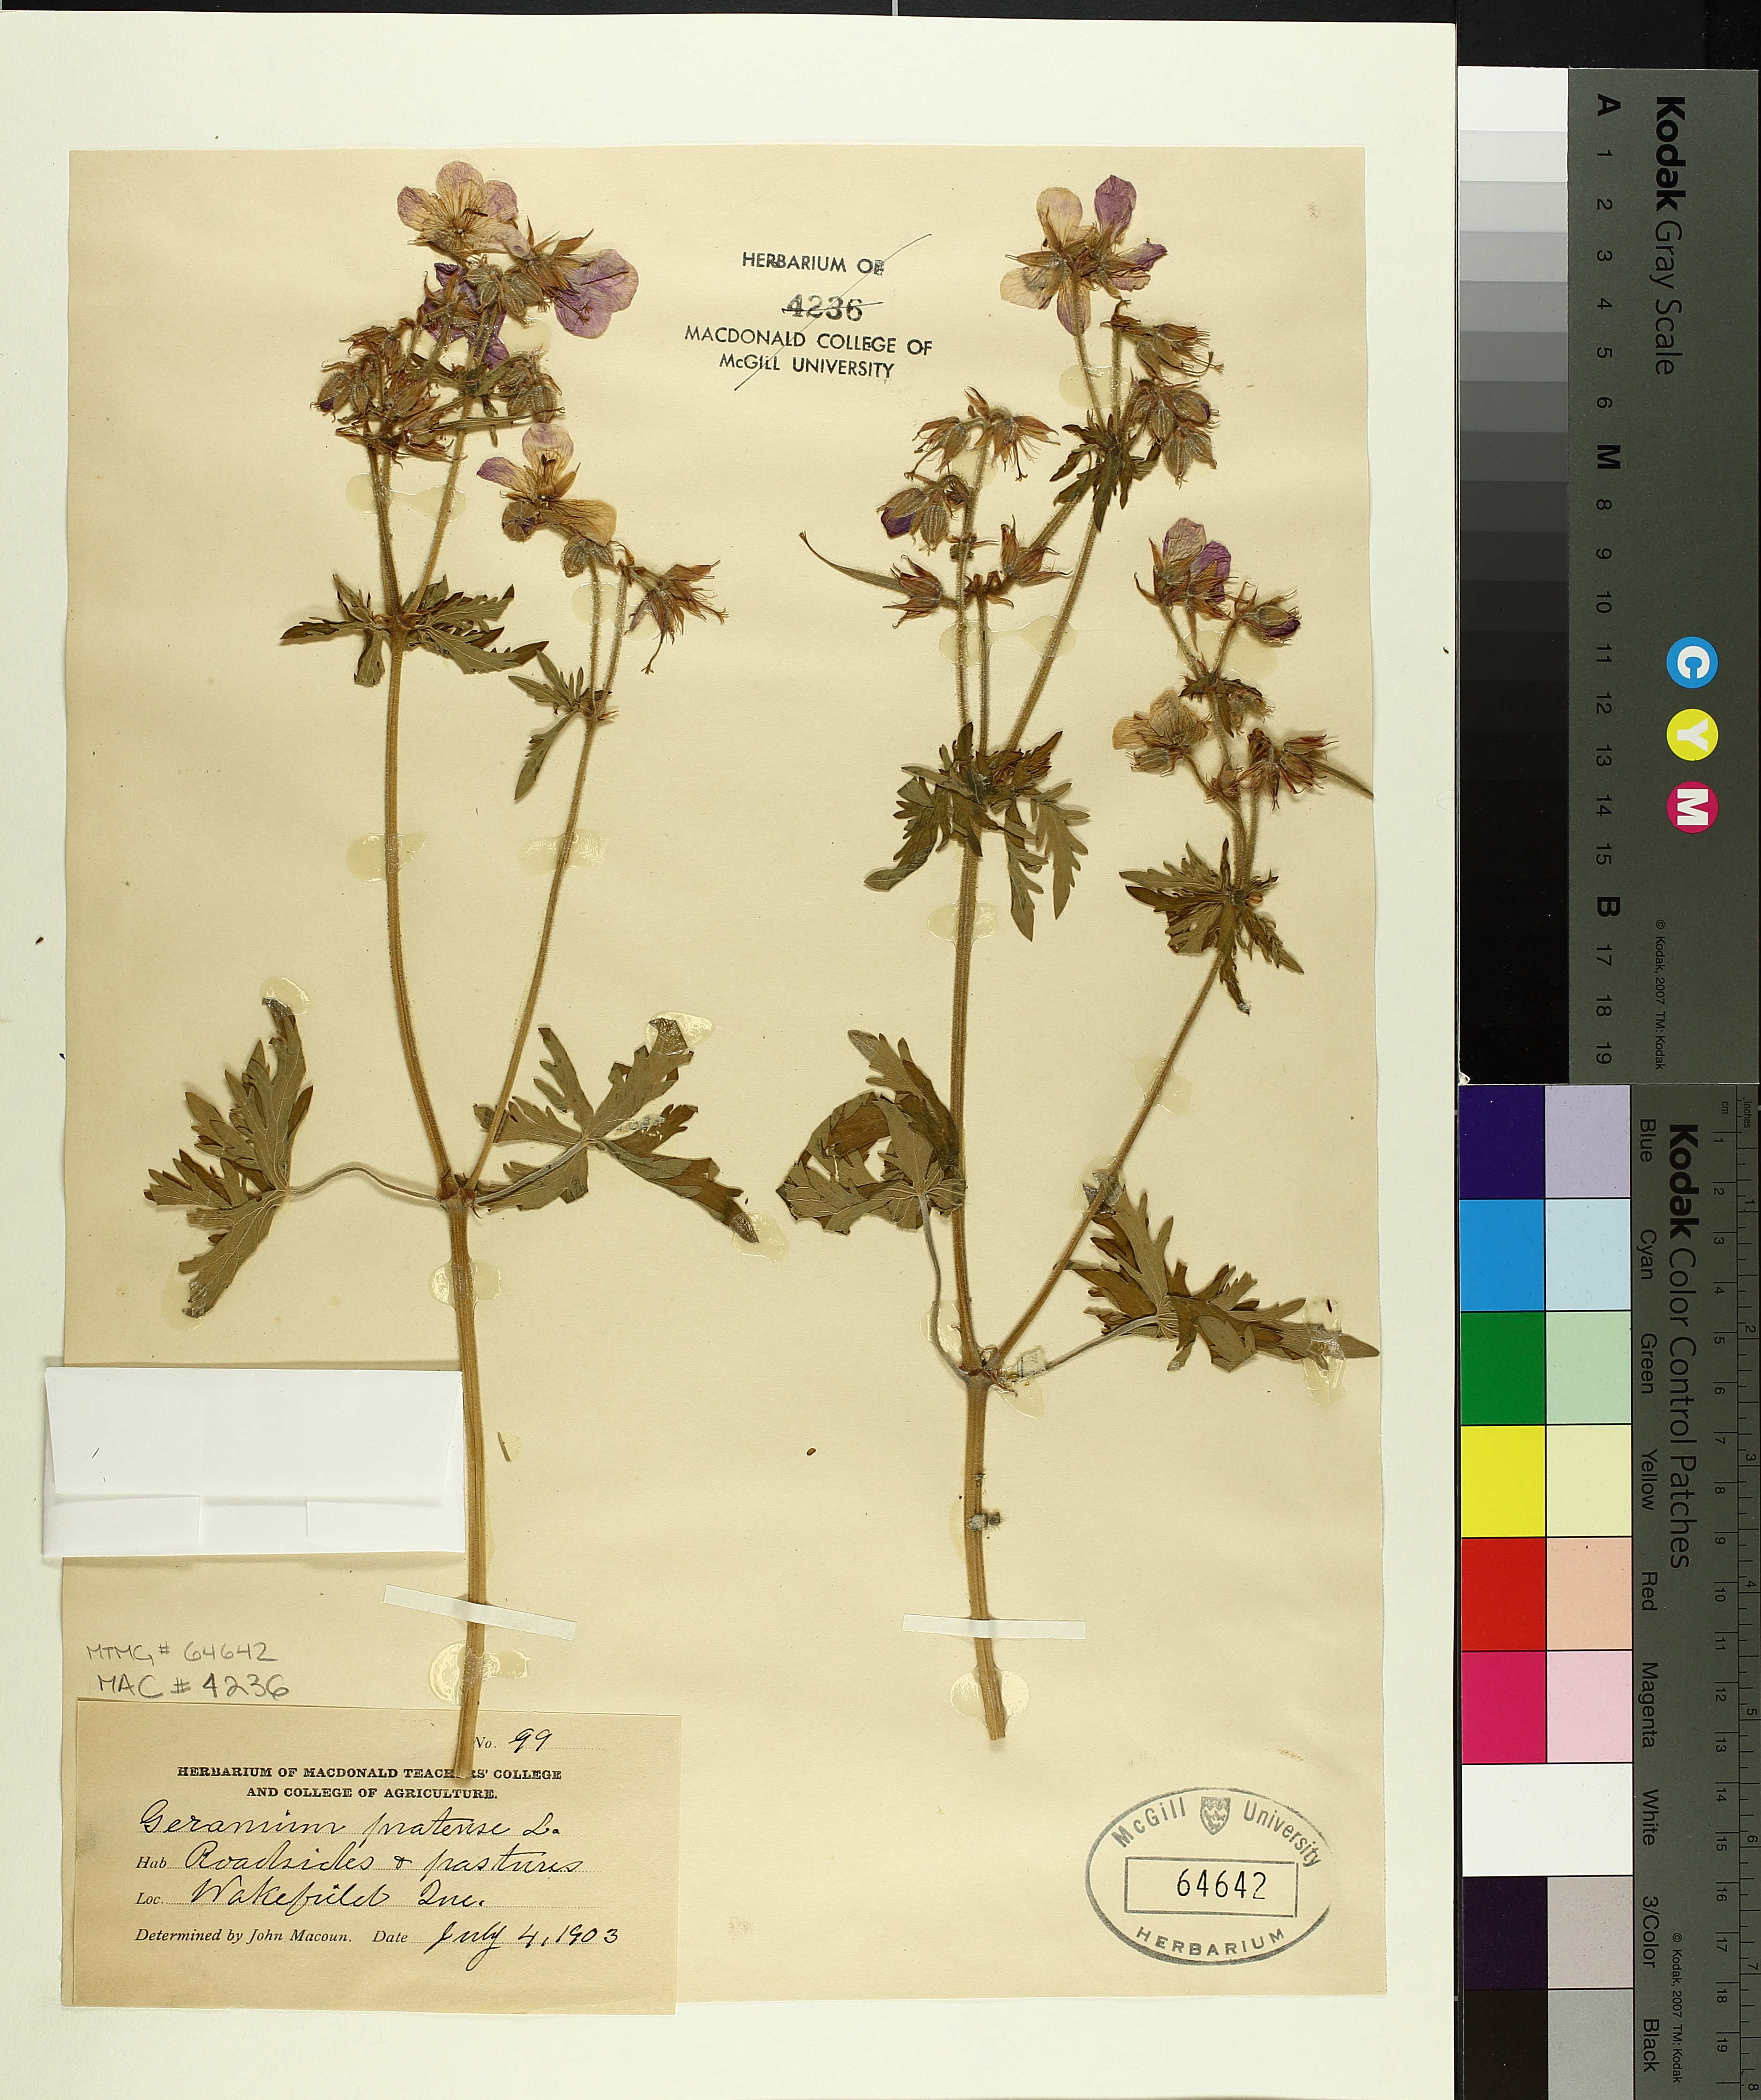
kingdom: Plantae
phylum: Tracheophyta
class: Magnoliopsida
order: Geraniales
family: Geraniaceae
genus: Geranium
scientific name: Geranium pratense
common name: Meadow crane's-bill
